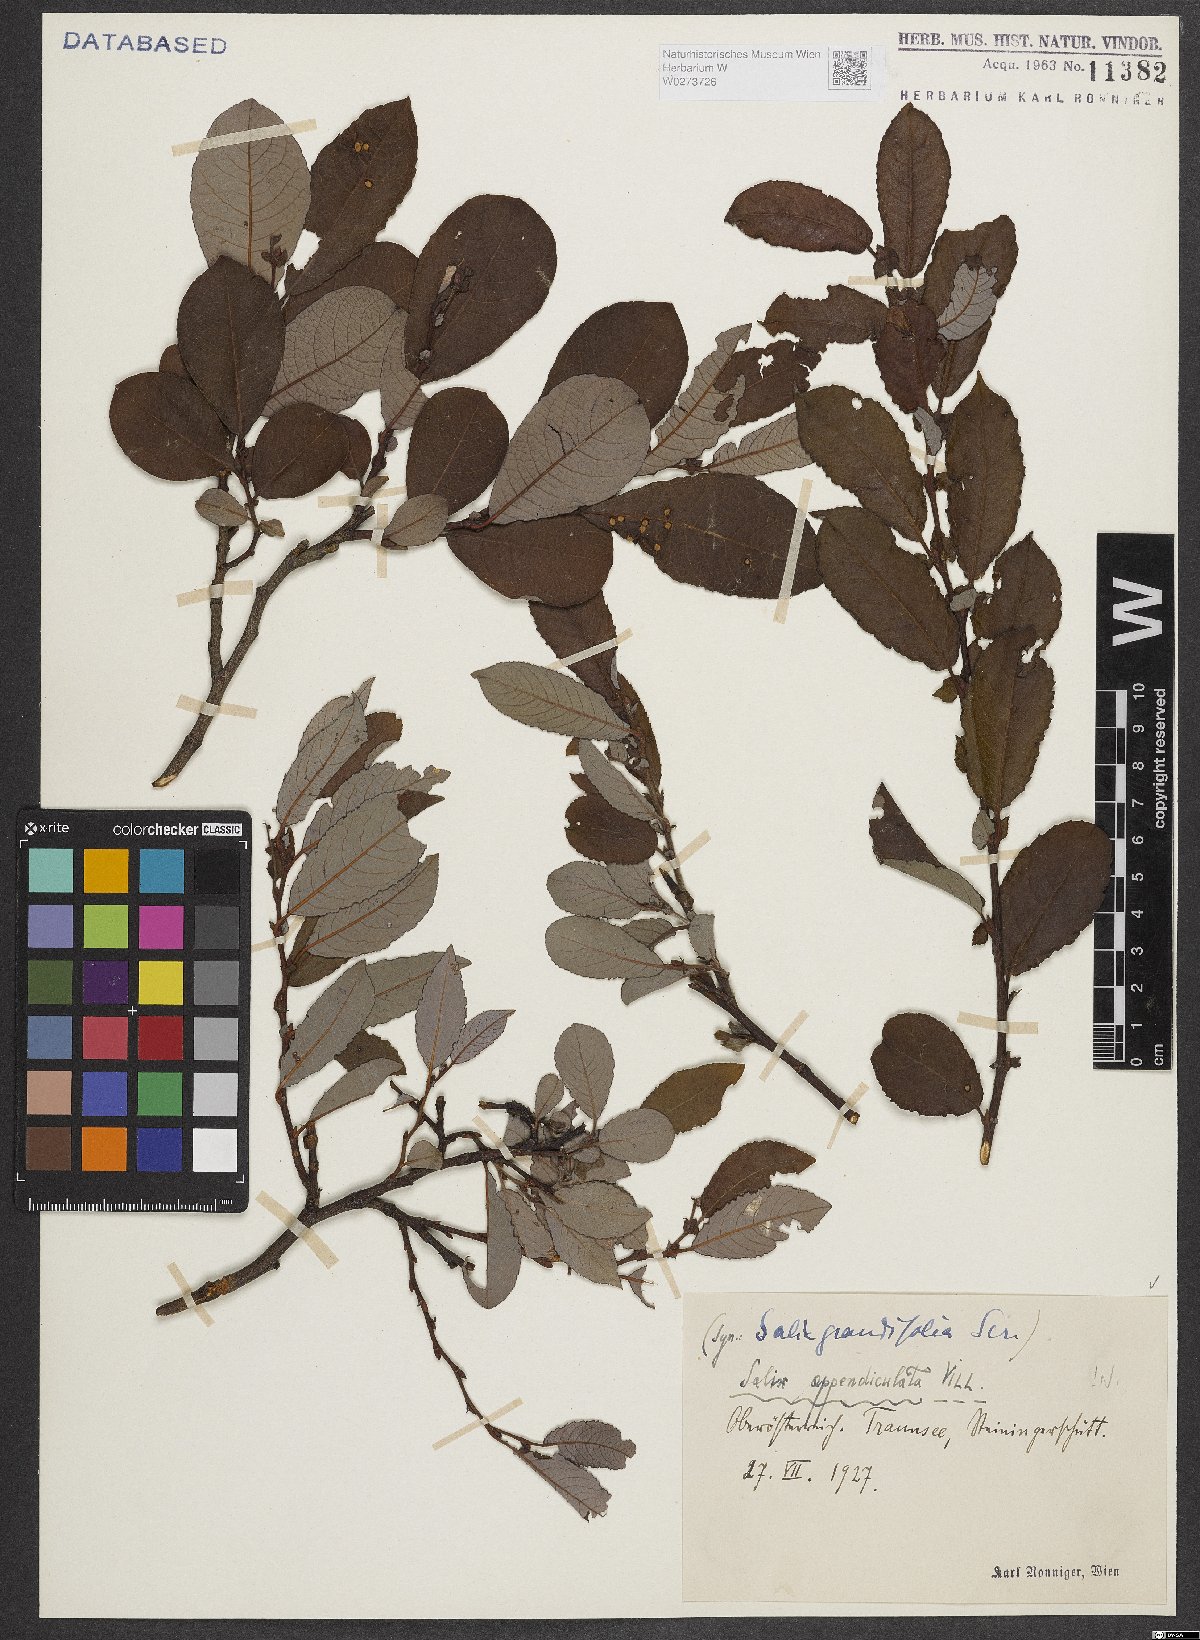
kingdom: Plantae
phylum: Tracheophyta
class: Magnoliopsida
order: Malpighiales
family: Salicaceae
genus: Salix
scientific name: Salix appendiculata
